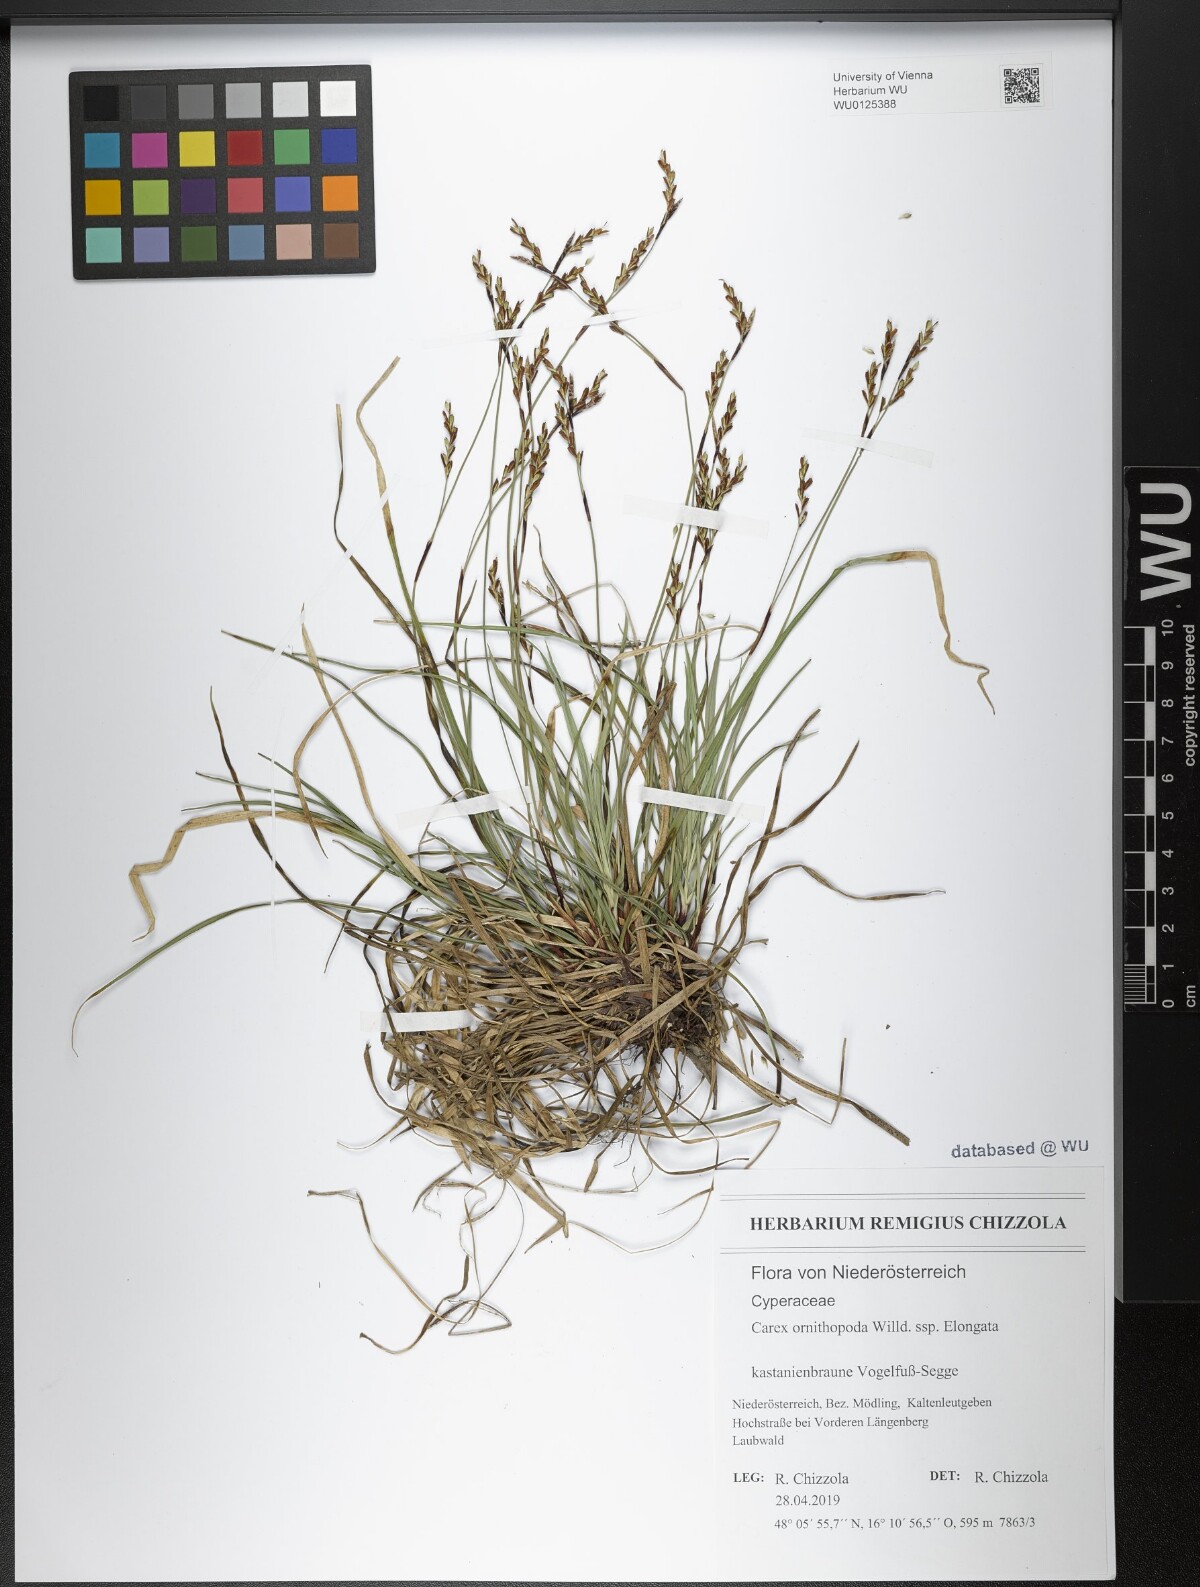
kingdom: Plantae
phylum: Tracheophyta
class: Liliopsida
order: Poales
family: Cyperaceae
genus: Carex
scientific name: Carex ornithopoda
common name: Bird's-foot sedge
